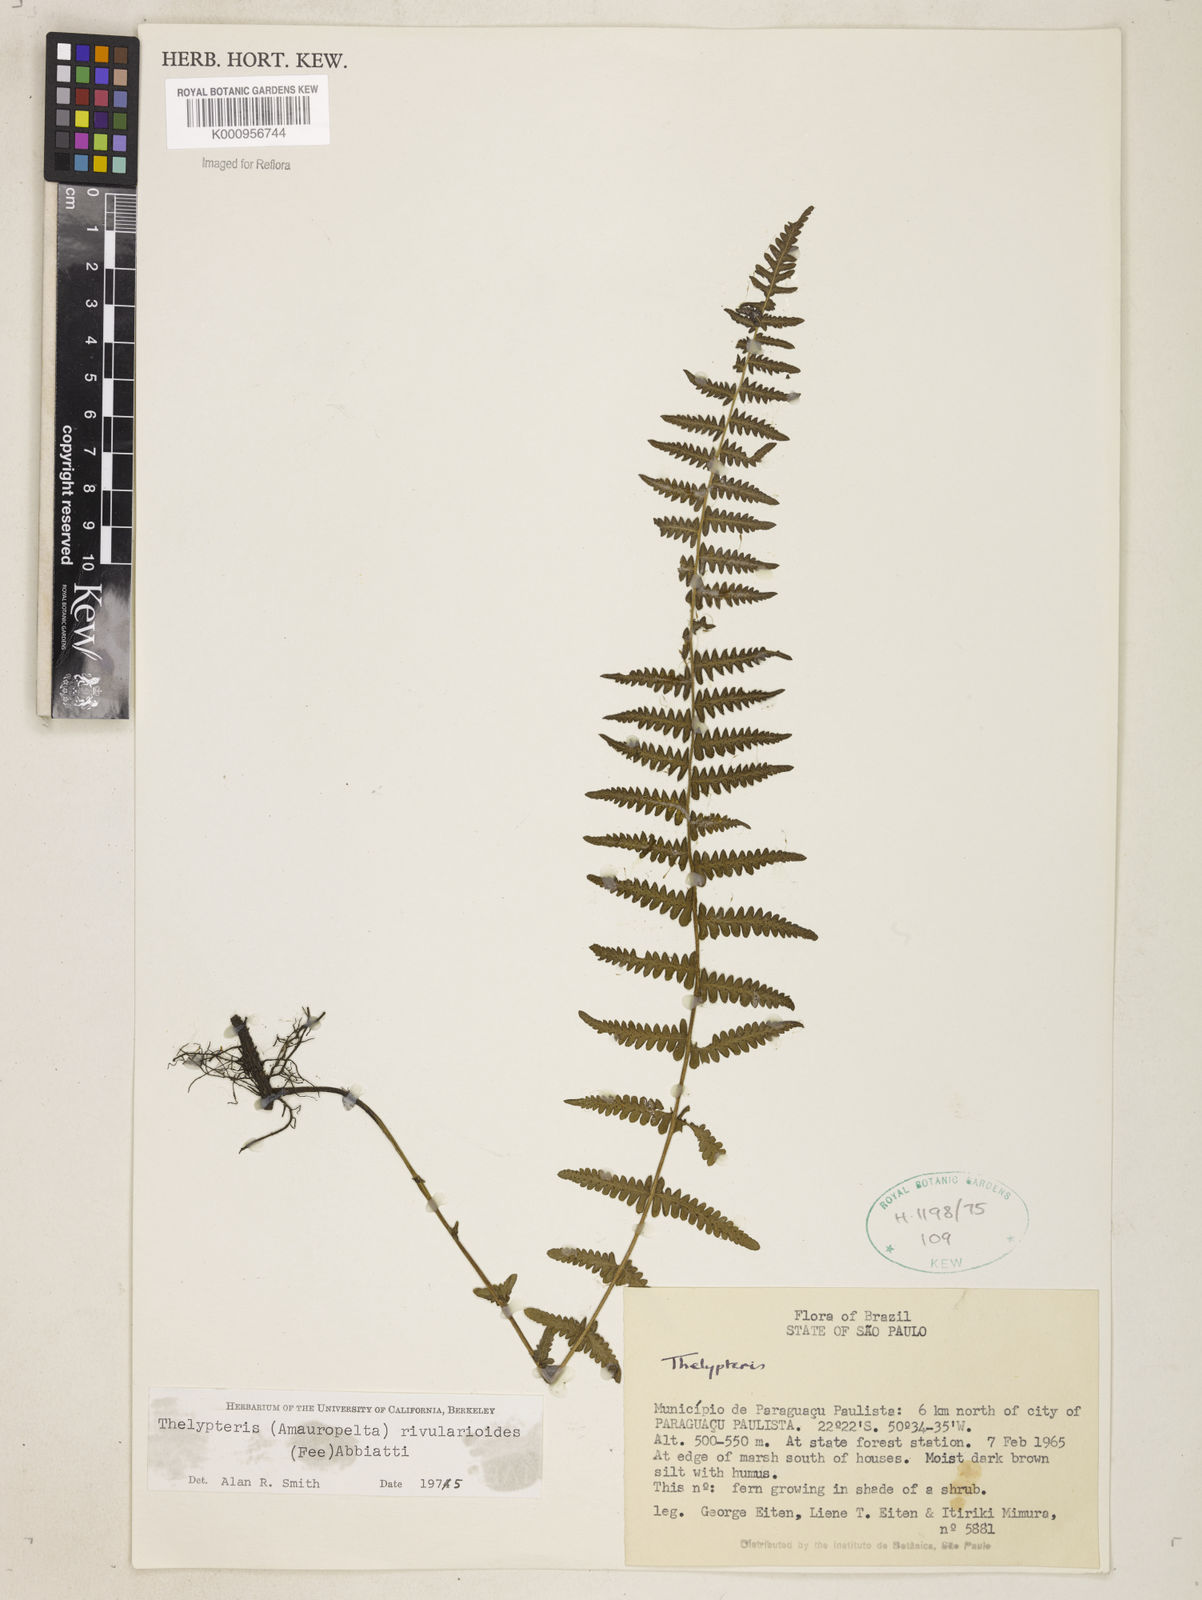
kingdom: Plantae
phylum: Tracheophyta
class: Polypodiopsida
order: Polypodiales
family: Thelypteridaceae
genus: Amauropelta
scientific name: Amauropelta rivularioides
